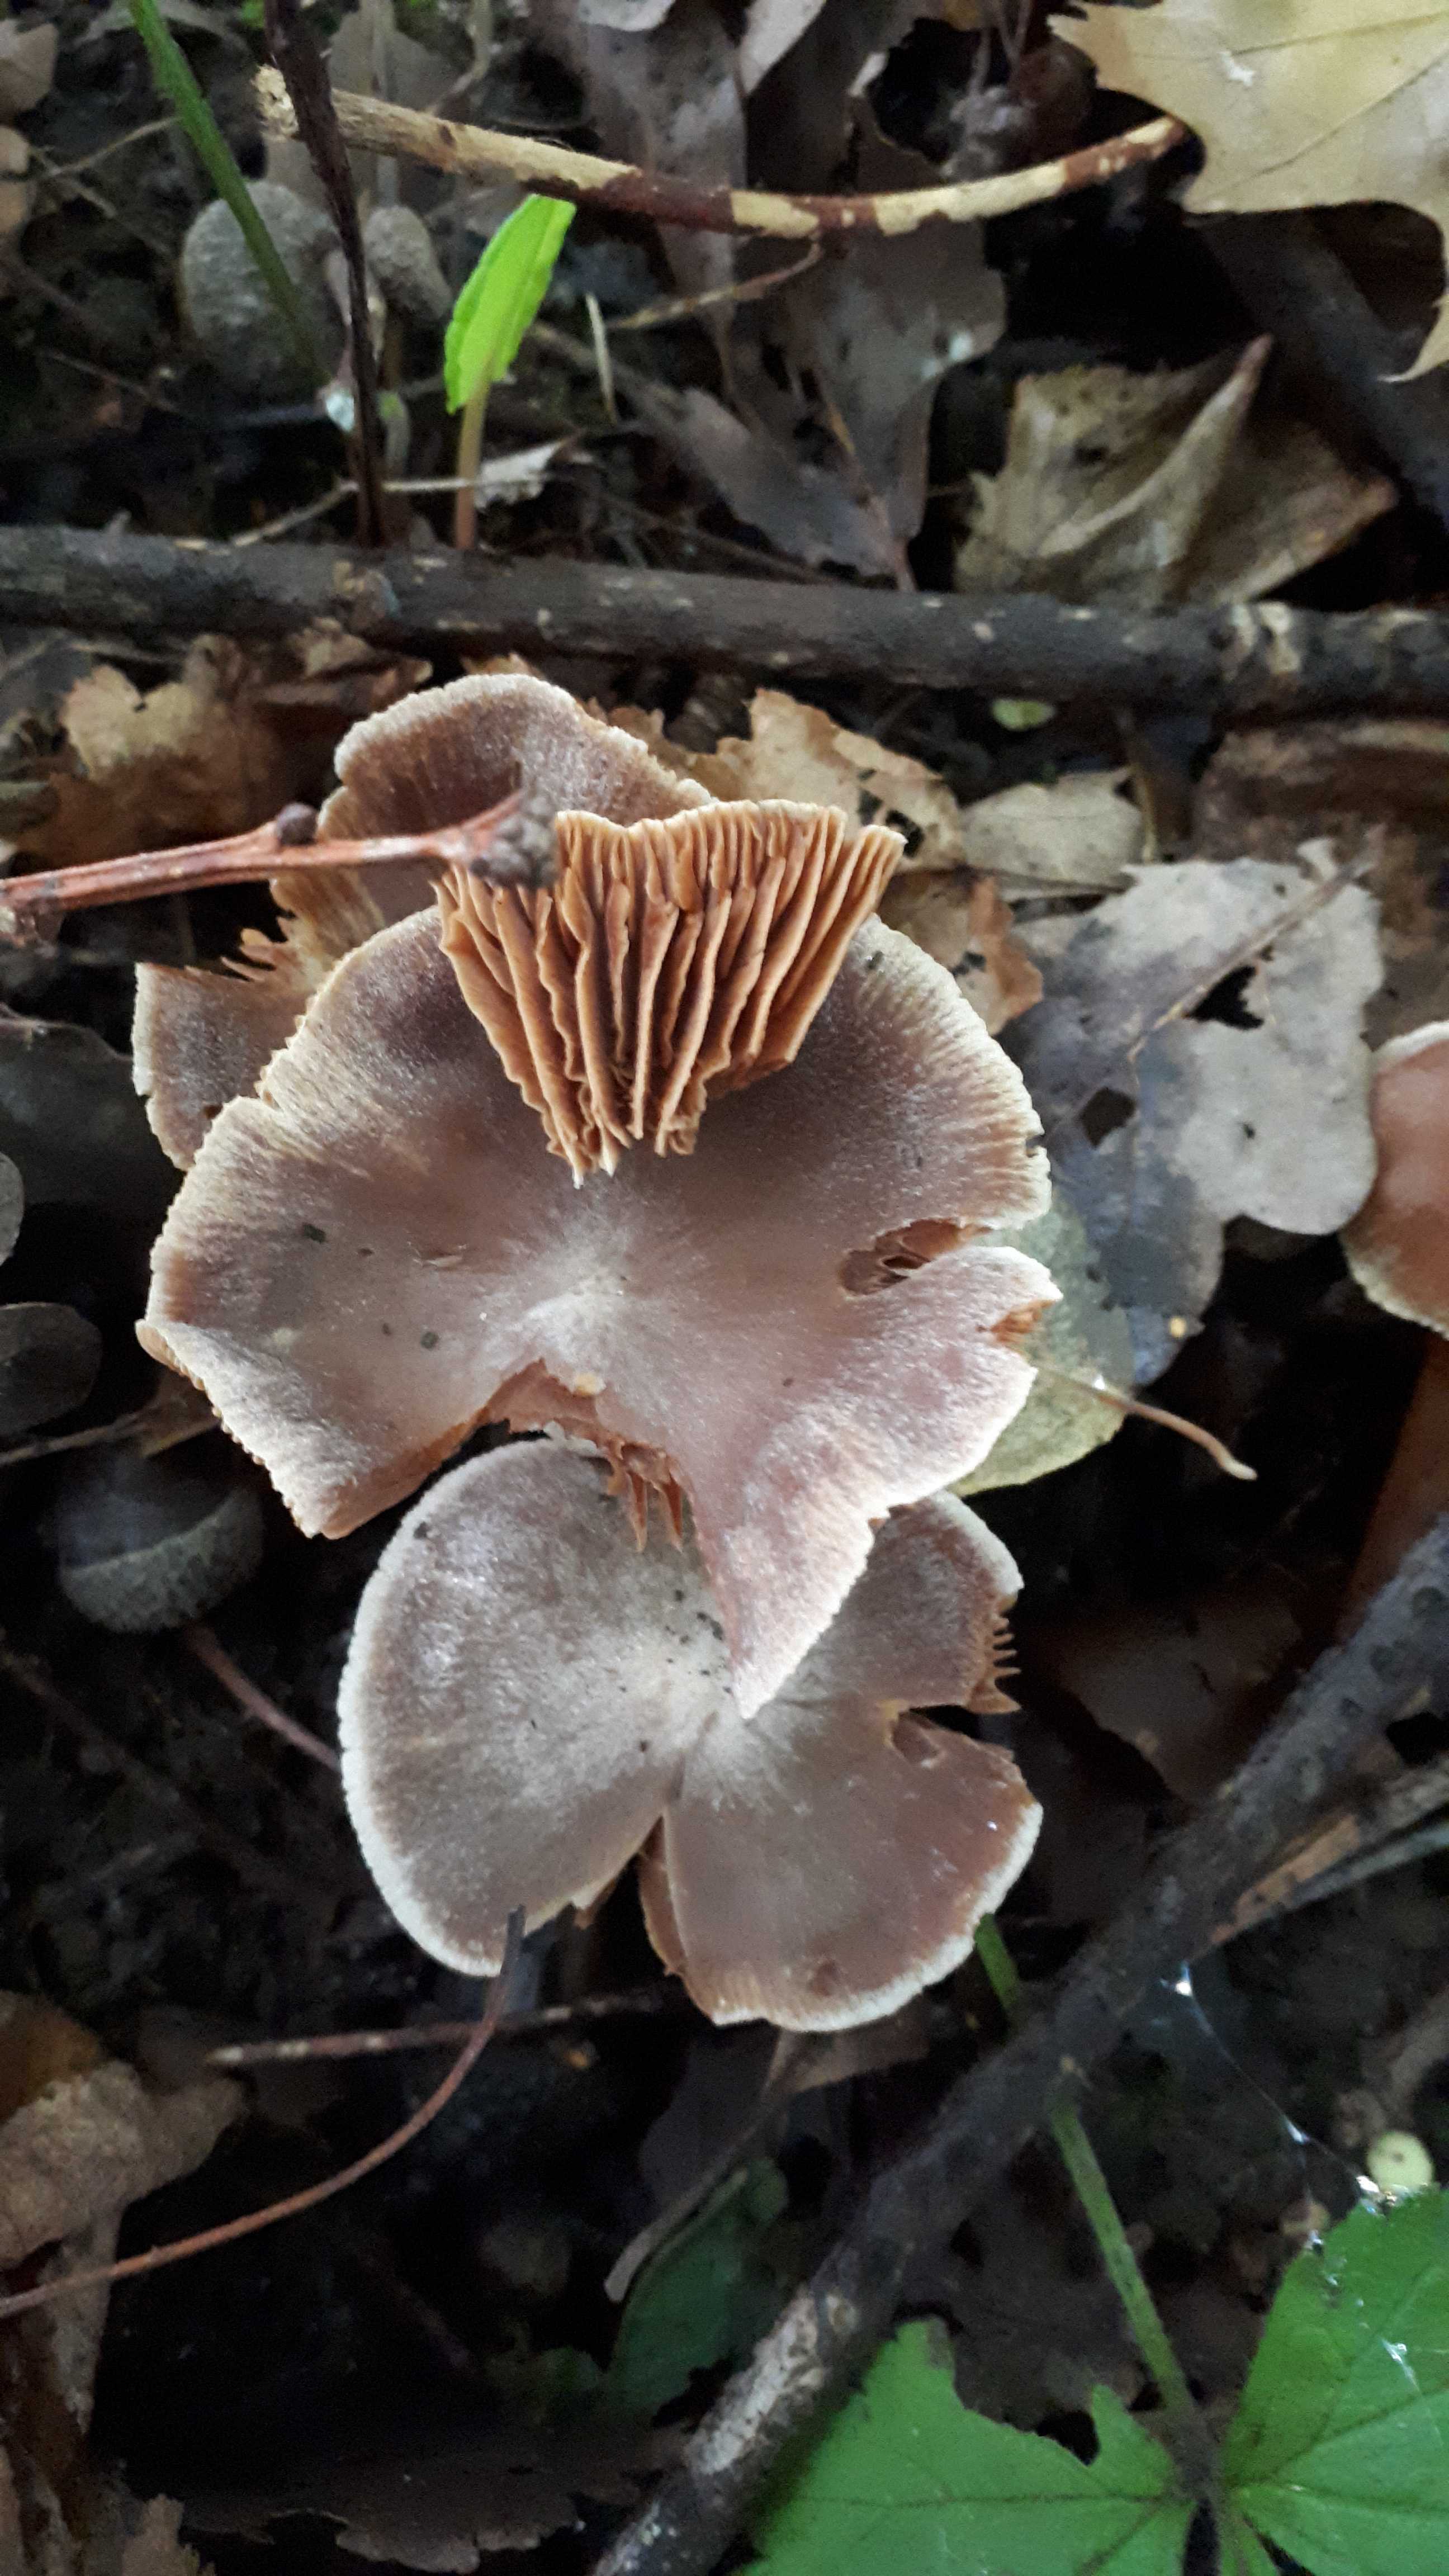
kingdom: Fungi
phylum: Basidiomycota
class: Agaricomycetes
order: Agaricales
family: Cortinariaceae
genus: Cortinarius
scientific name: Cortinarius
